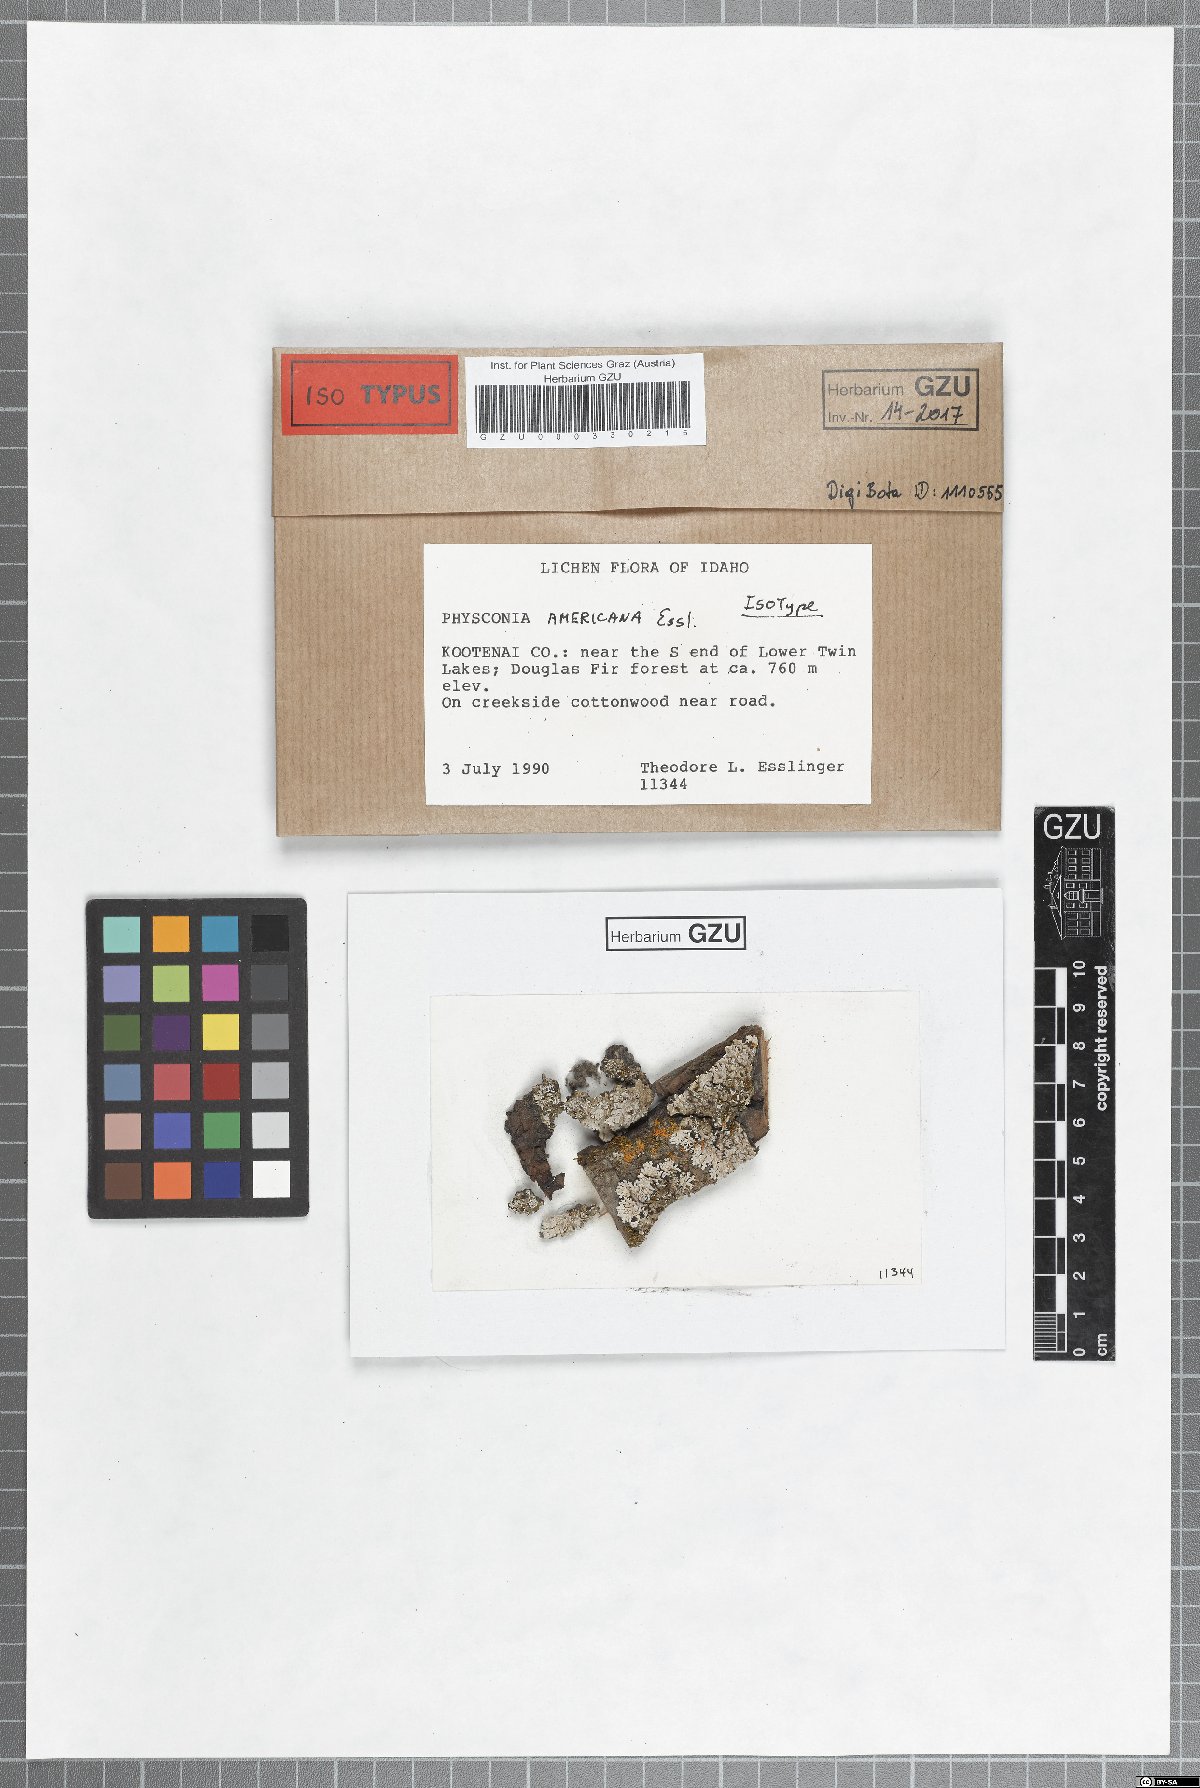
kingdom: Fungi
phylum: Ascomycota
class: Lecanoromycetes
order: Caliciales
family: Physciaceae
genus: Physconia
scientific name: Physconia americana
